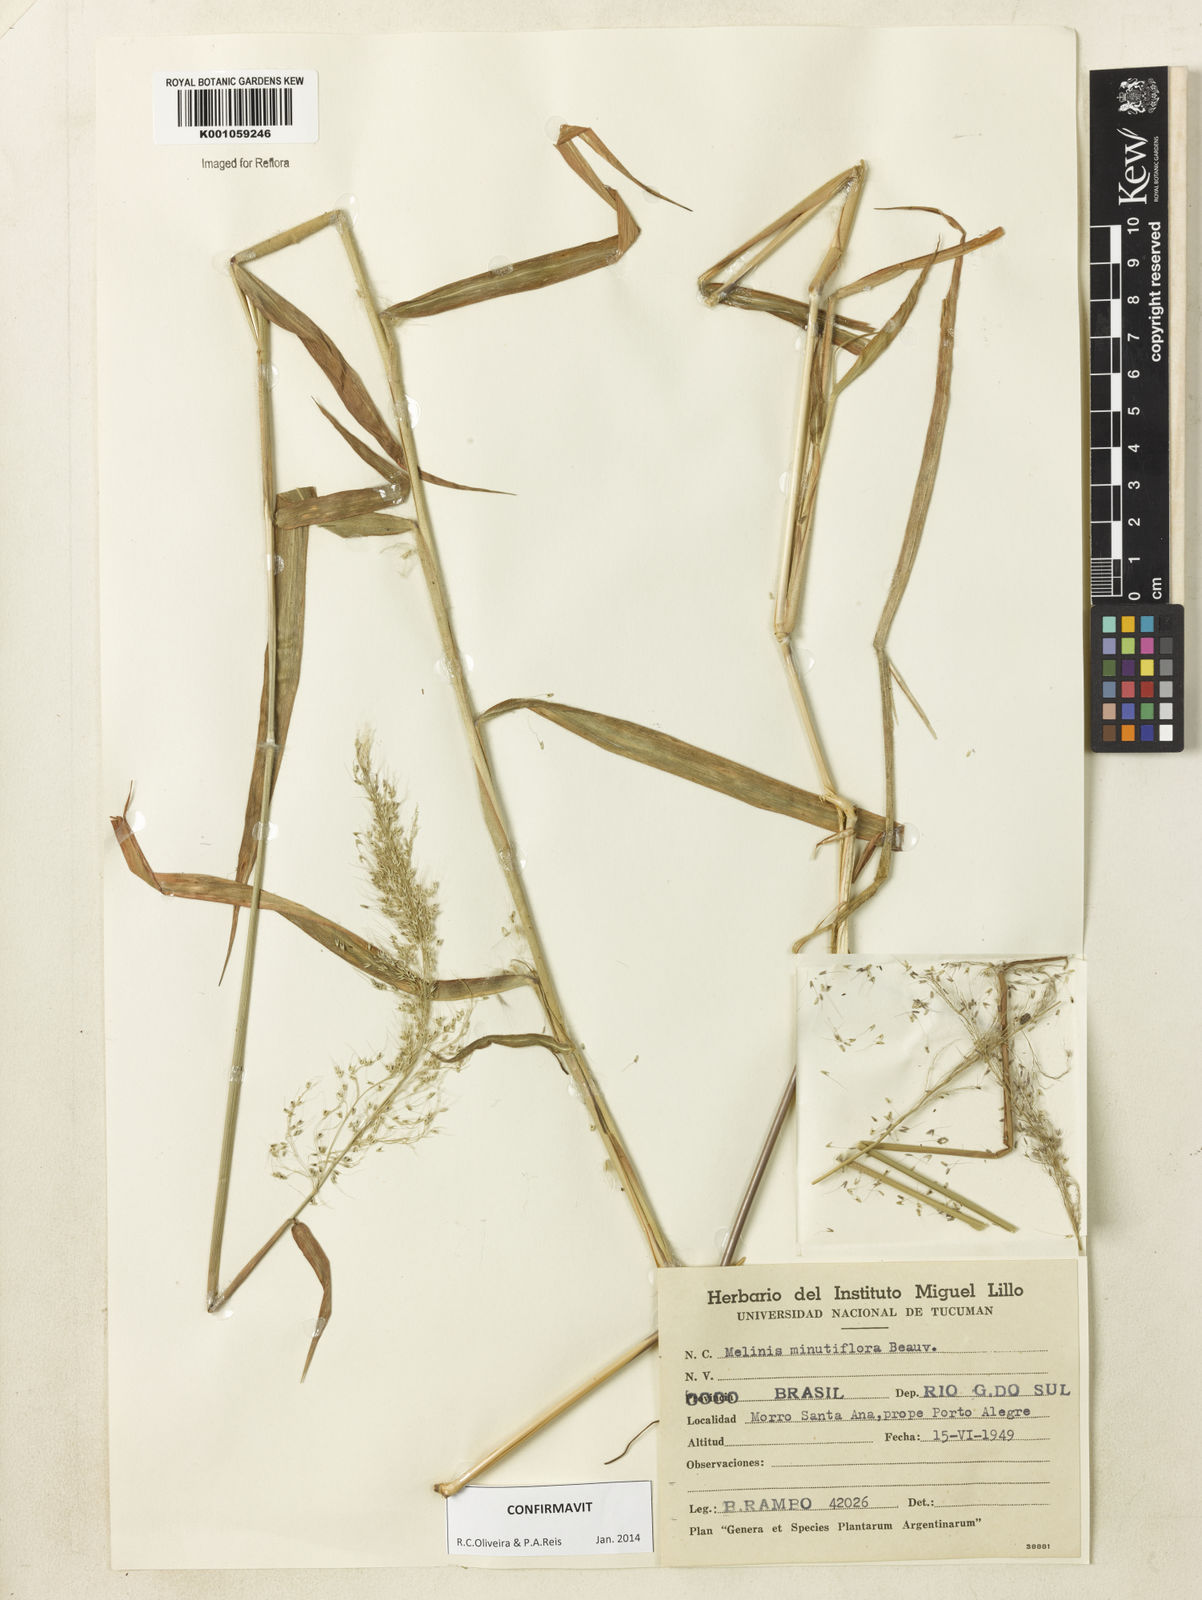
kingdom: Plantae
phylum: Tracheophyta
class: Liliopsida
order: Poales
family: Poaceae
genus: Melinis
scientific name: Melinis minutiflora
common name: Molassesgrass
